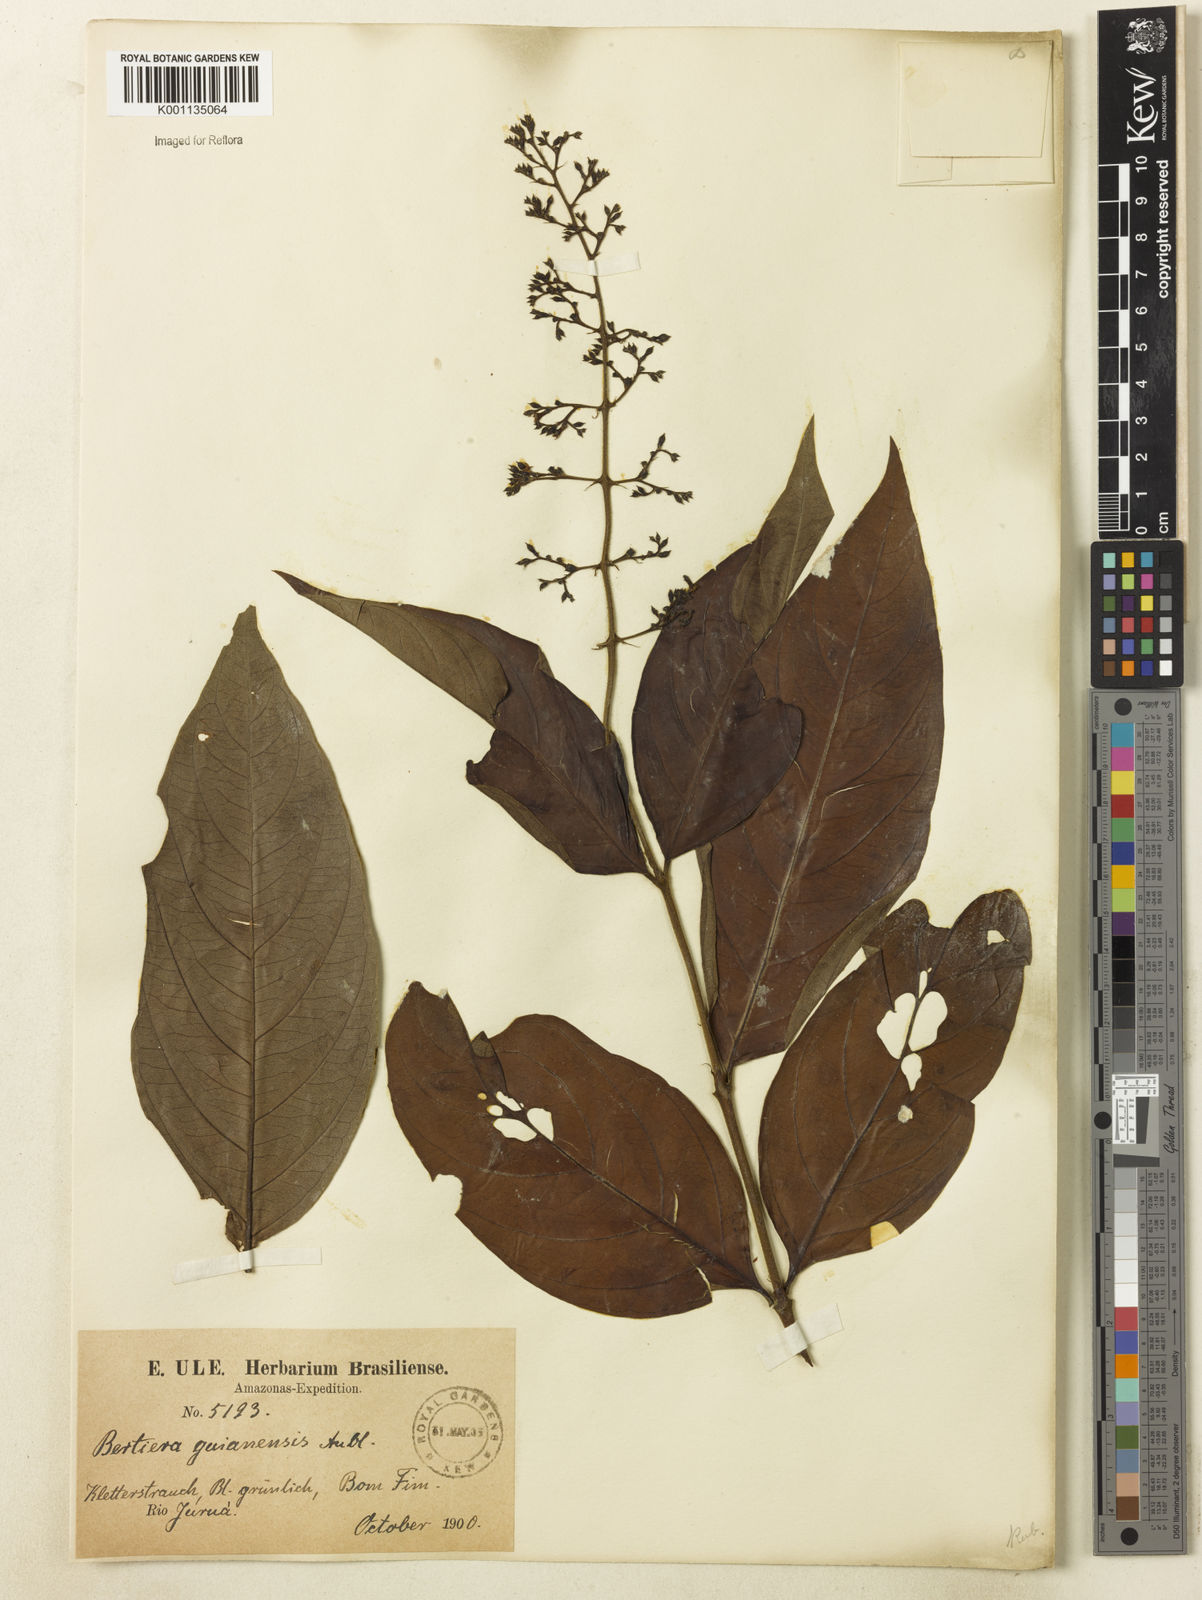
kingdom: Plantae
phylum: Tracheophyta
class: Magnoliopsida
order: Gentianales
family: Rubiaceae
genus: Bertiera
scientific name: Bertiera guianensis
